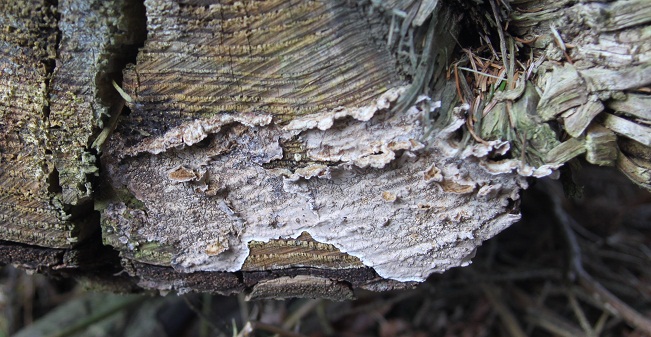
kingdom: Fungi
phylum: Basidiomycota
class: Agaricomycetes
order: Russulales
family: Echinodontiaceae
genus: Amylostereum
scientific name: Amylostereum chailletii
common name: gran-lædersvamp
